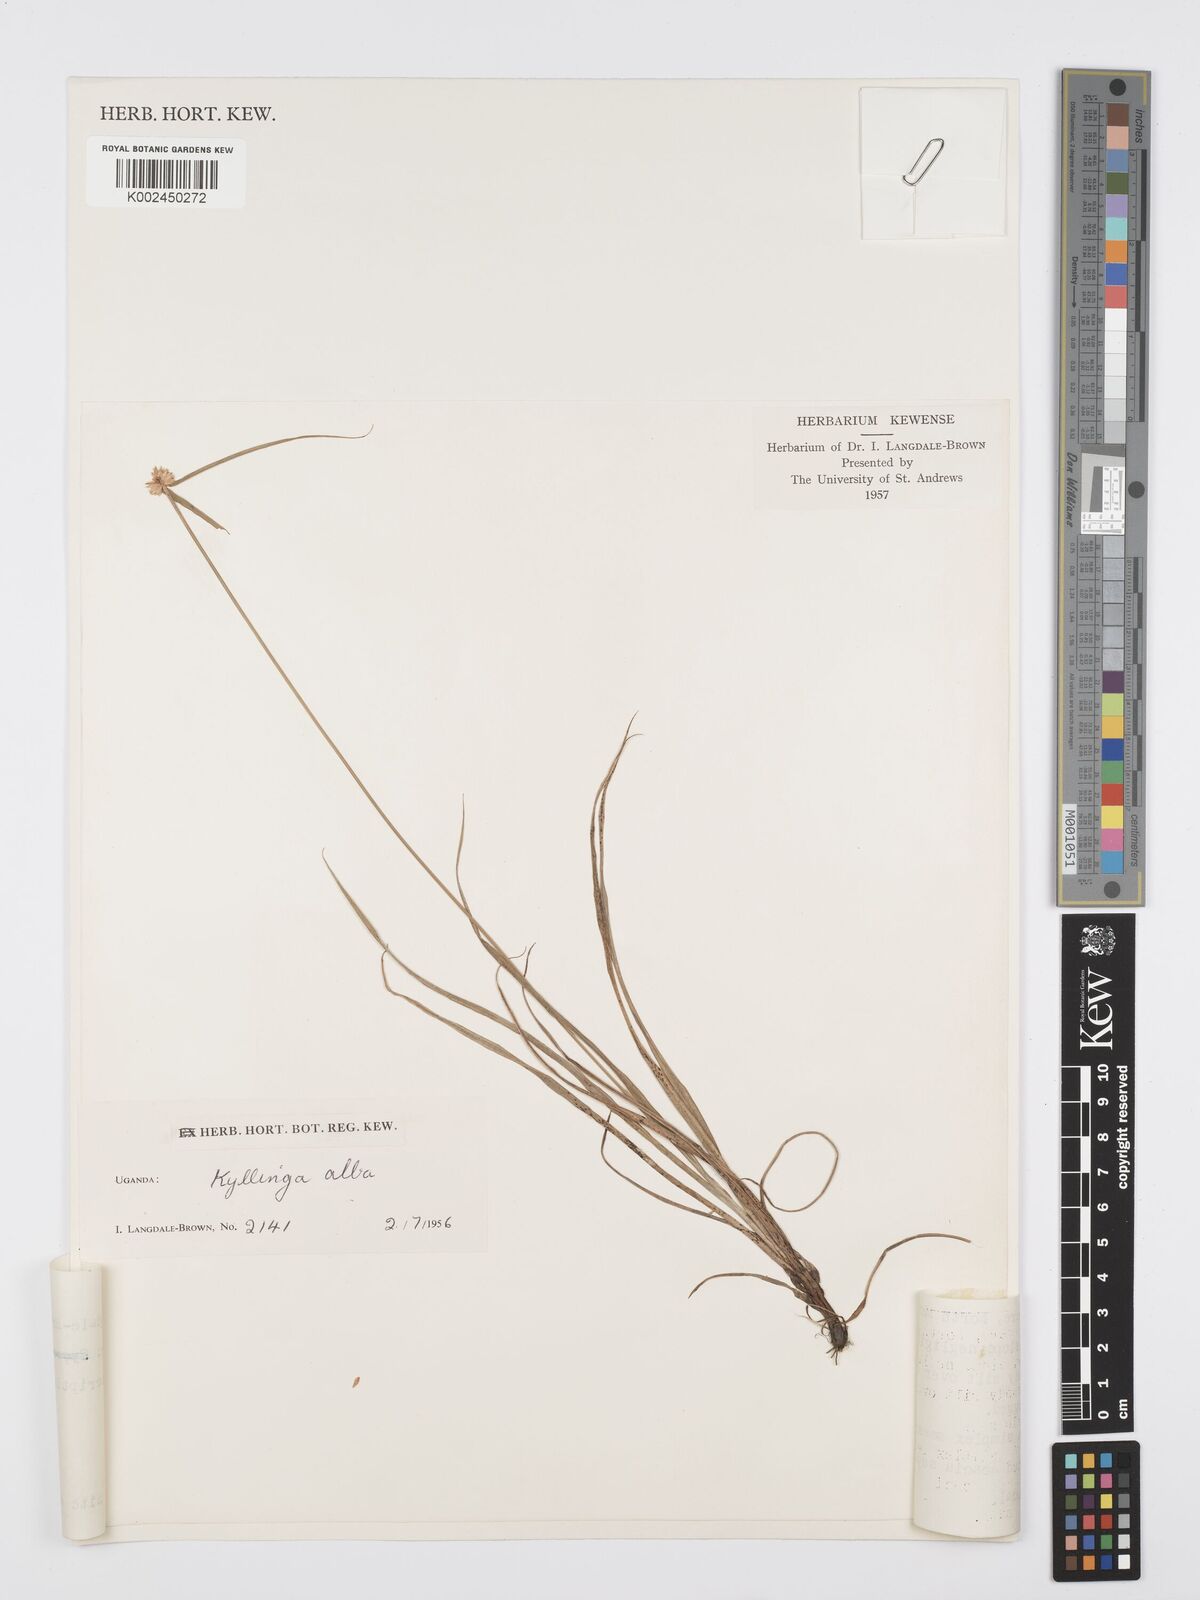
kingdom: Plantae
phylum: Tracheophyta
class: Liliopsida
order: Poales
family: Cyperaceae
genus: Cyperus
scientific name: Cyperus
